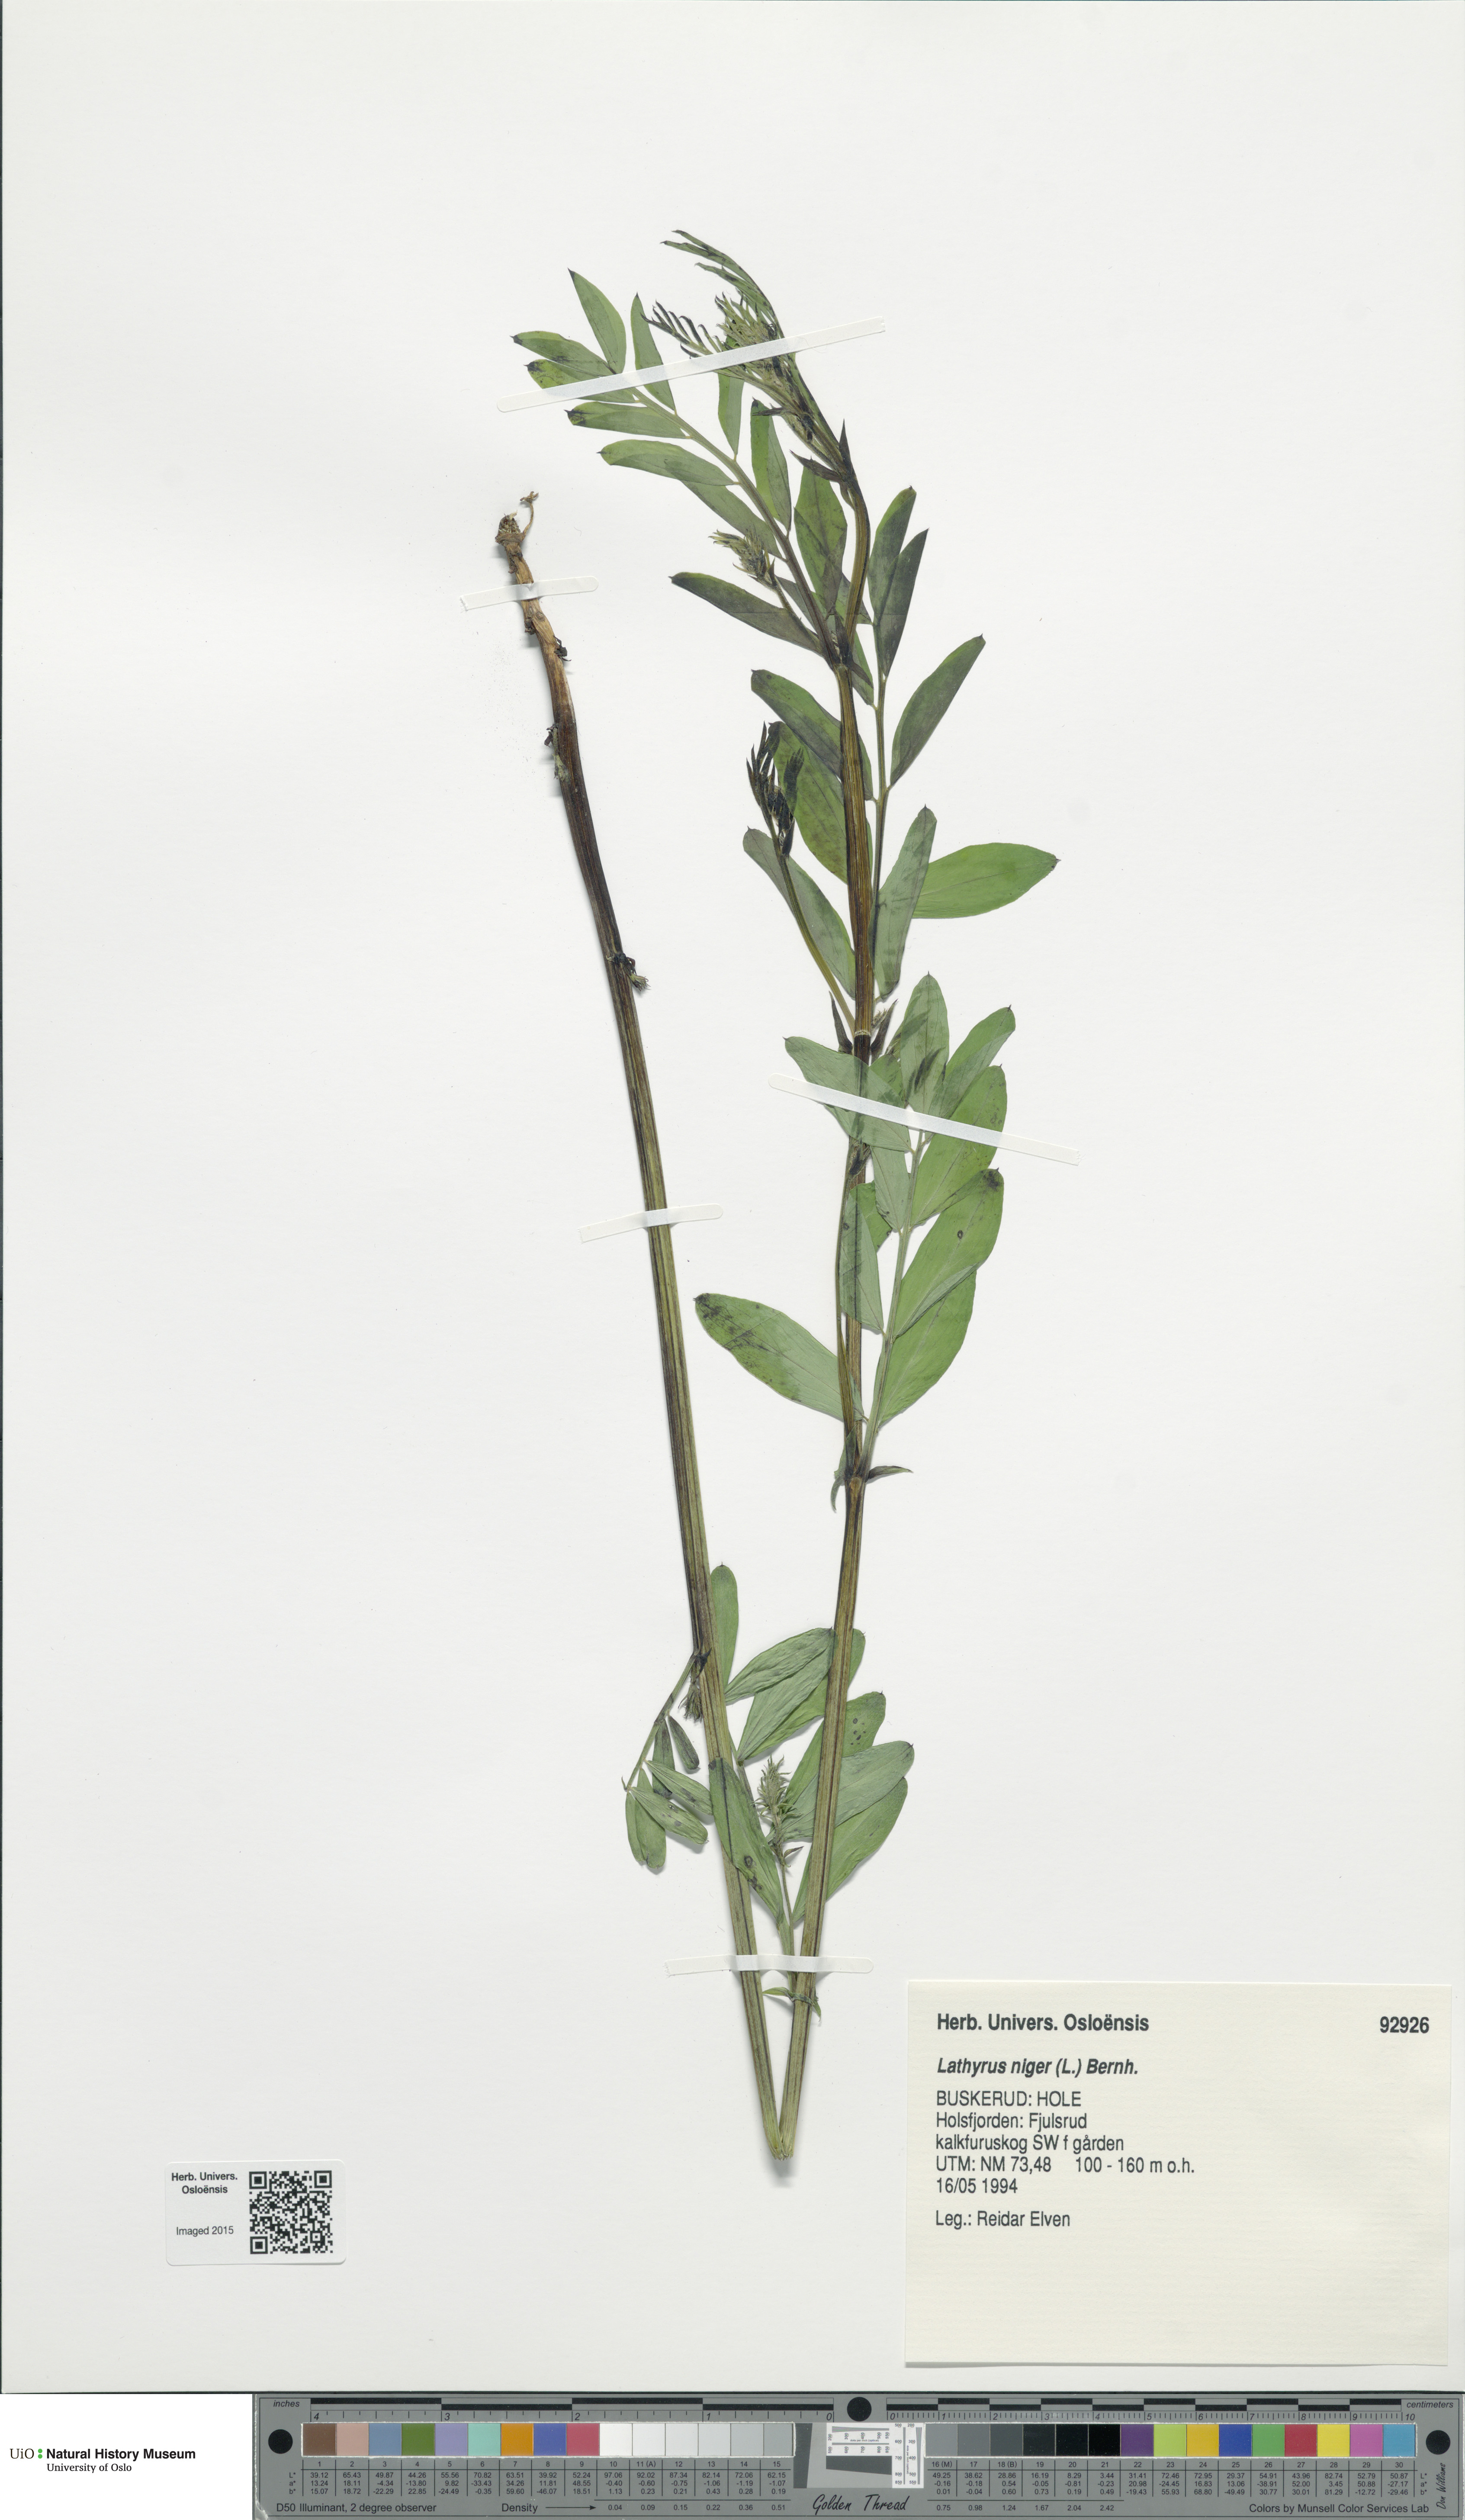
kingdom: Plantae
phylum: Tracheophyta
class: Magnoliopsida
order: Fabales
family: Fabaceae
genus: Lathyrus
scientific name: Lathyrus niger
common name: Black pea
